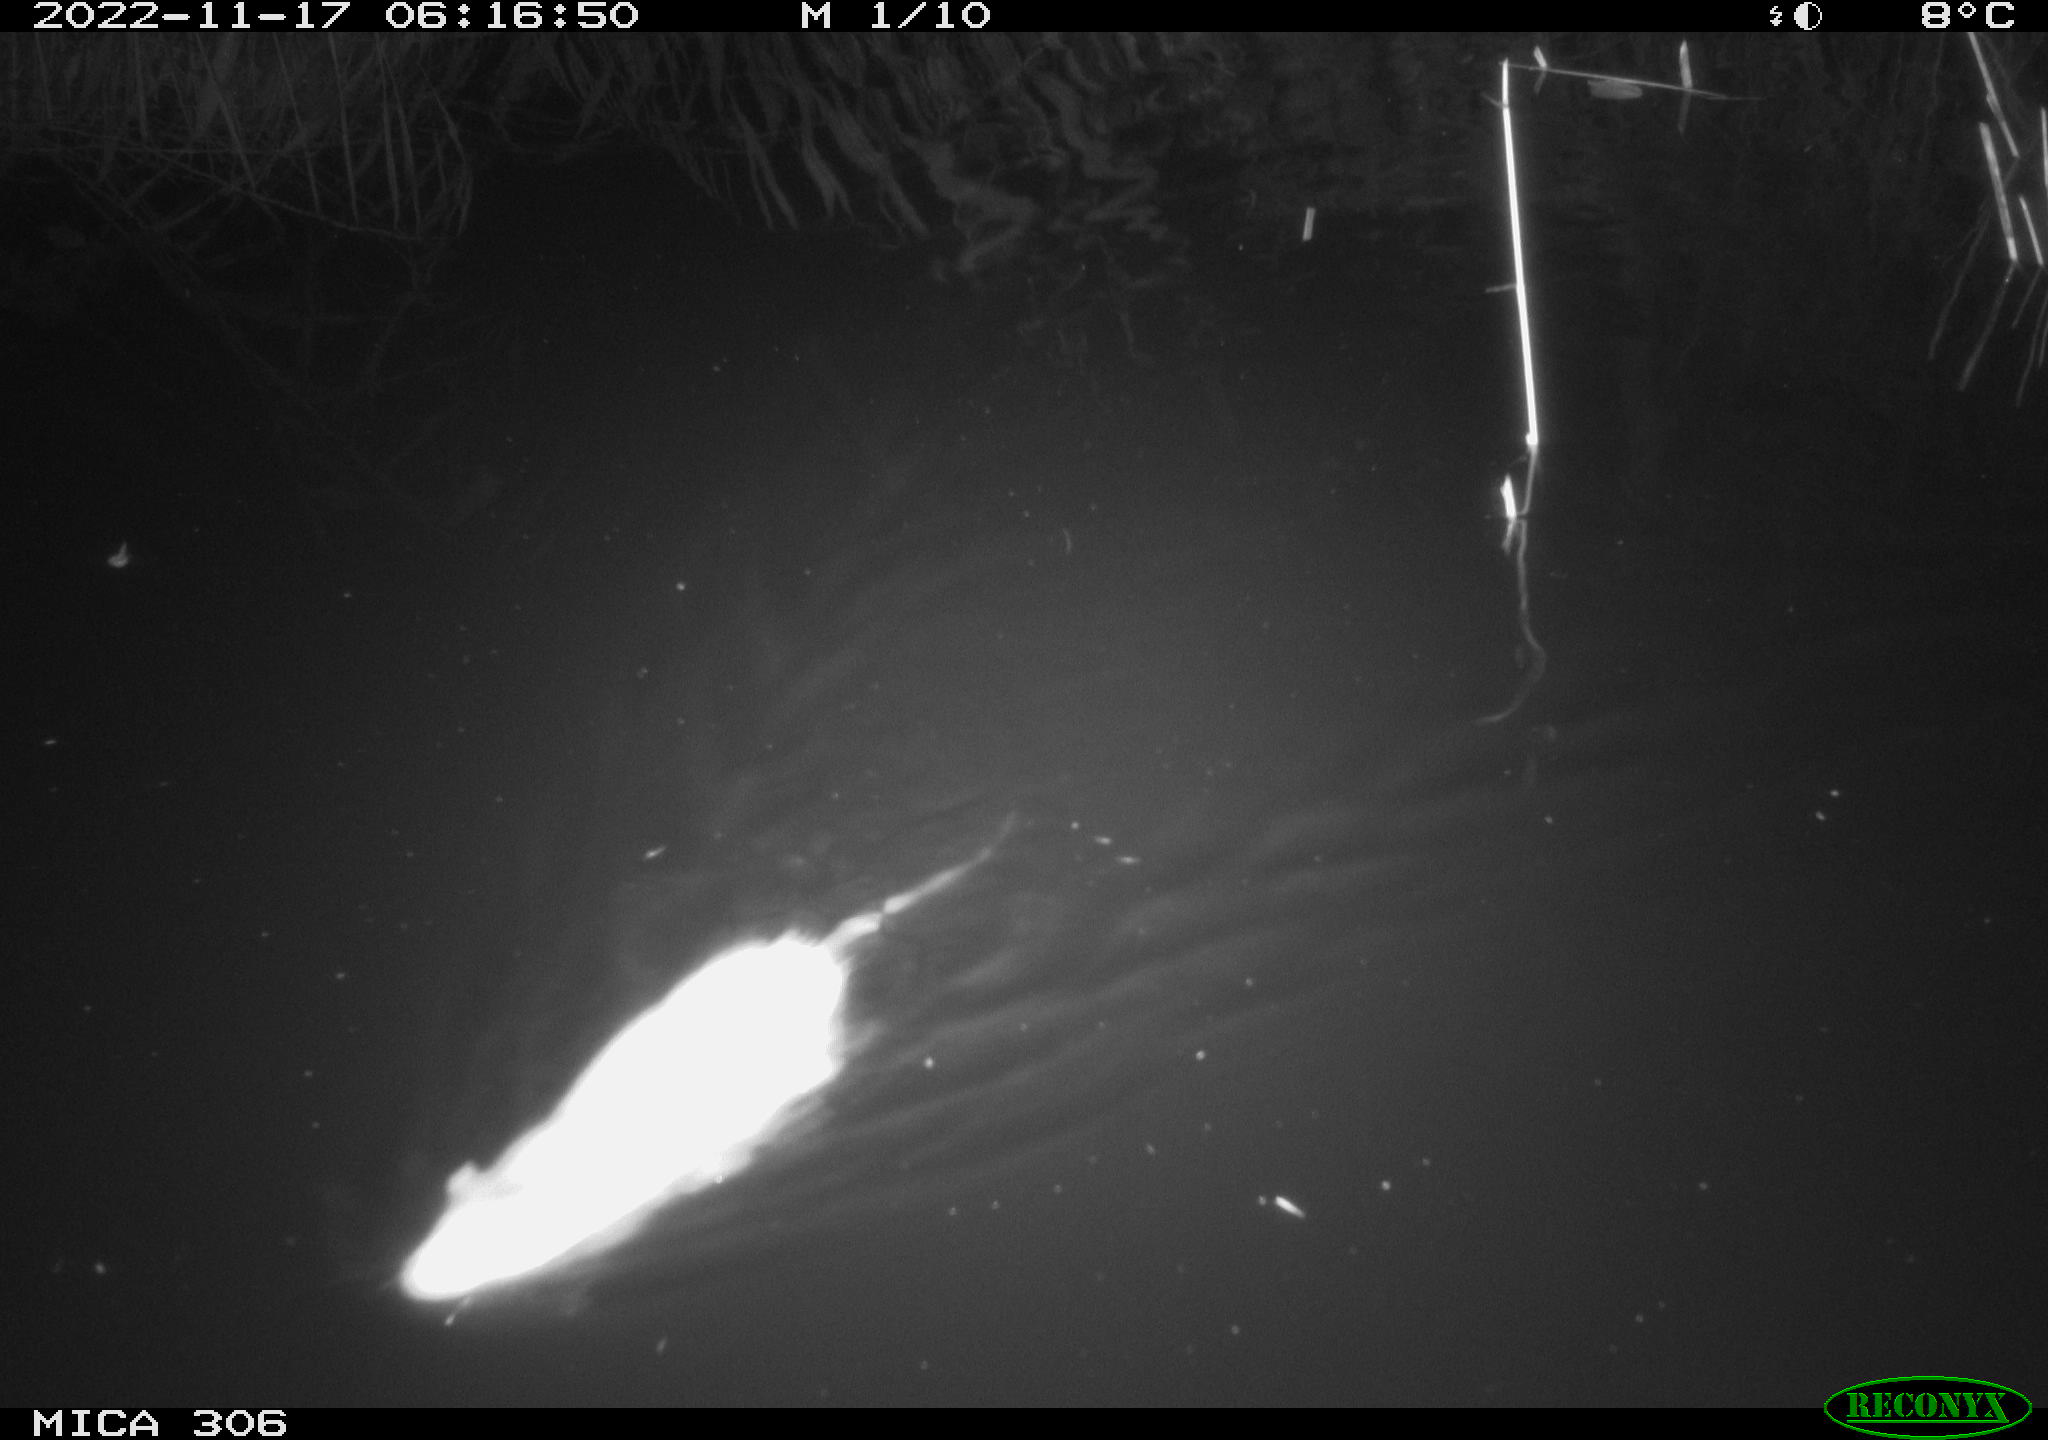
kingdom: Animalia
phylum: Chordata
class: Mammalia
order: Rodentia
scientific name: Rodentia
